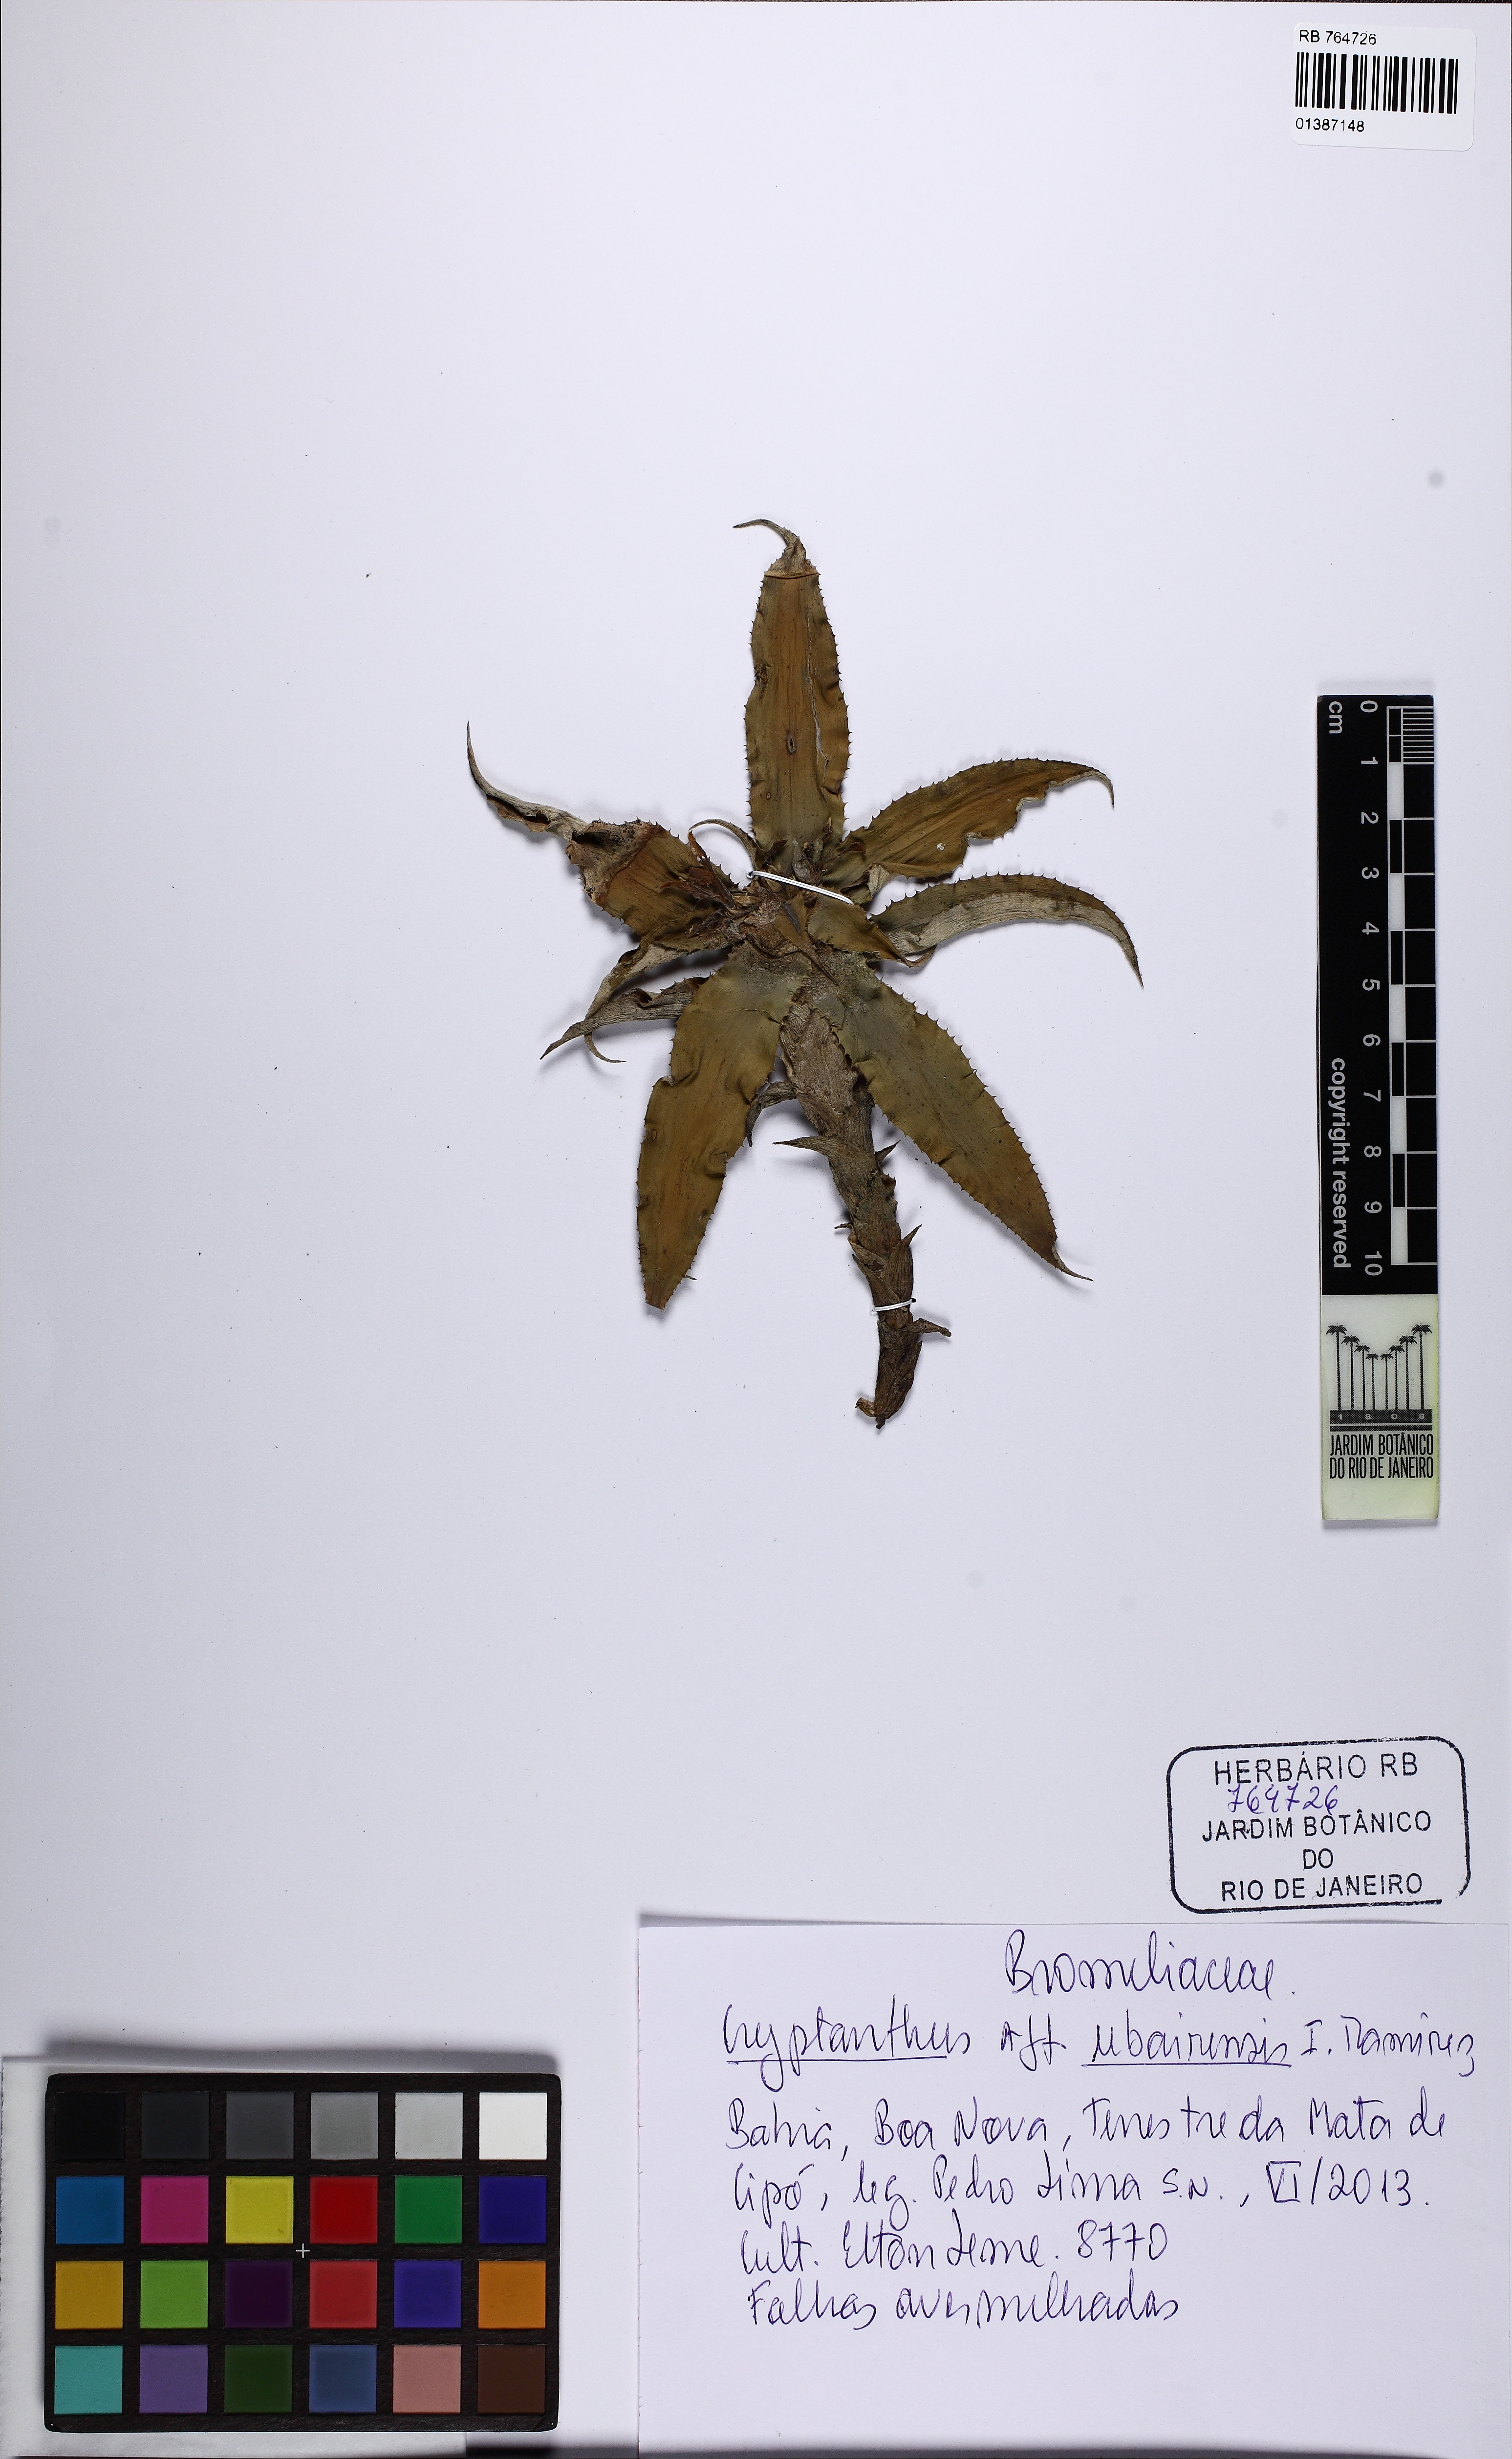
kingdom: Plantae
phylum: Tracheophyta
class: Liliopsida
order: Poales
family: Bromeliaceae
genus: Cryptanthus
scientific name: Cryptanthus brevibracteatus
